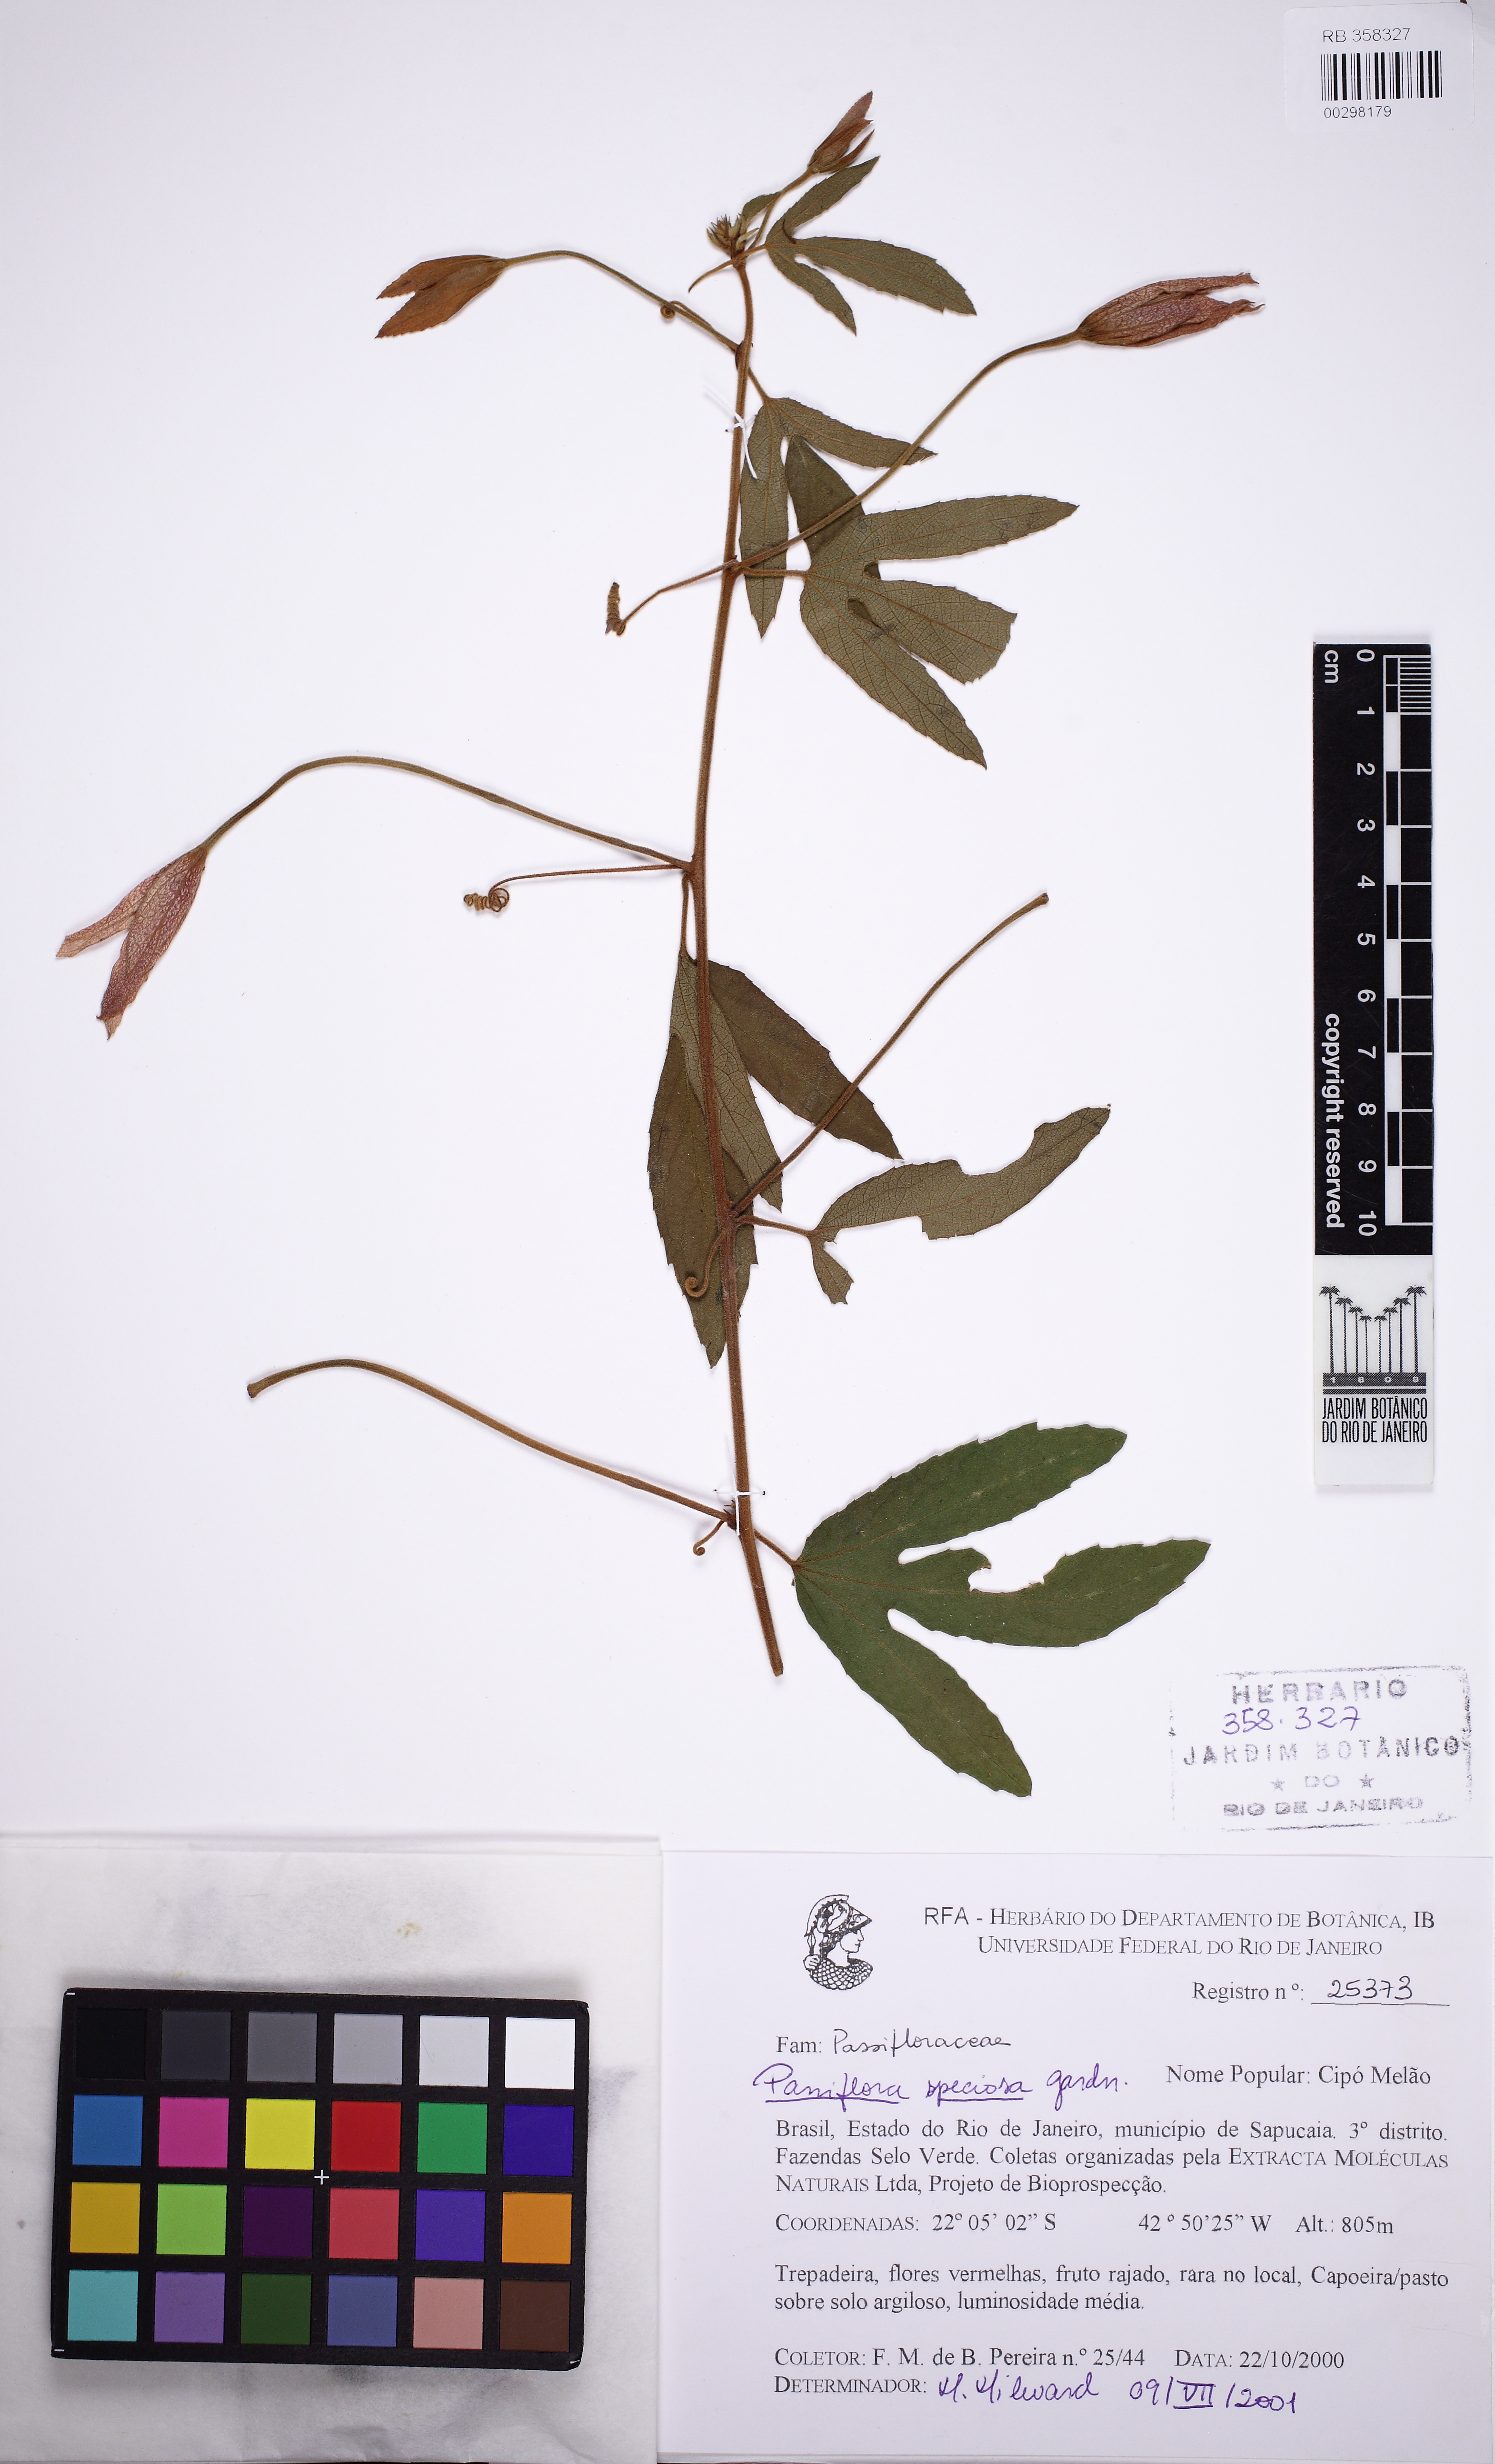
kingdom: Plantae
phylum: Tracheophyta
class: Magnoliopsida
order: Malpighiales
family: Passifloraceae
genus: Passiflora
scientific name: Passiflora speciosa
